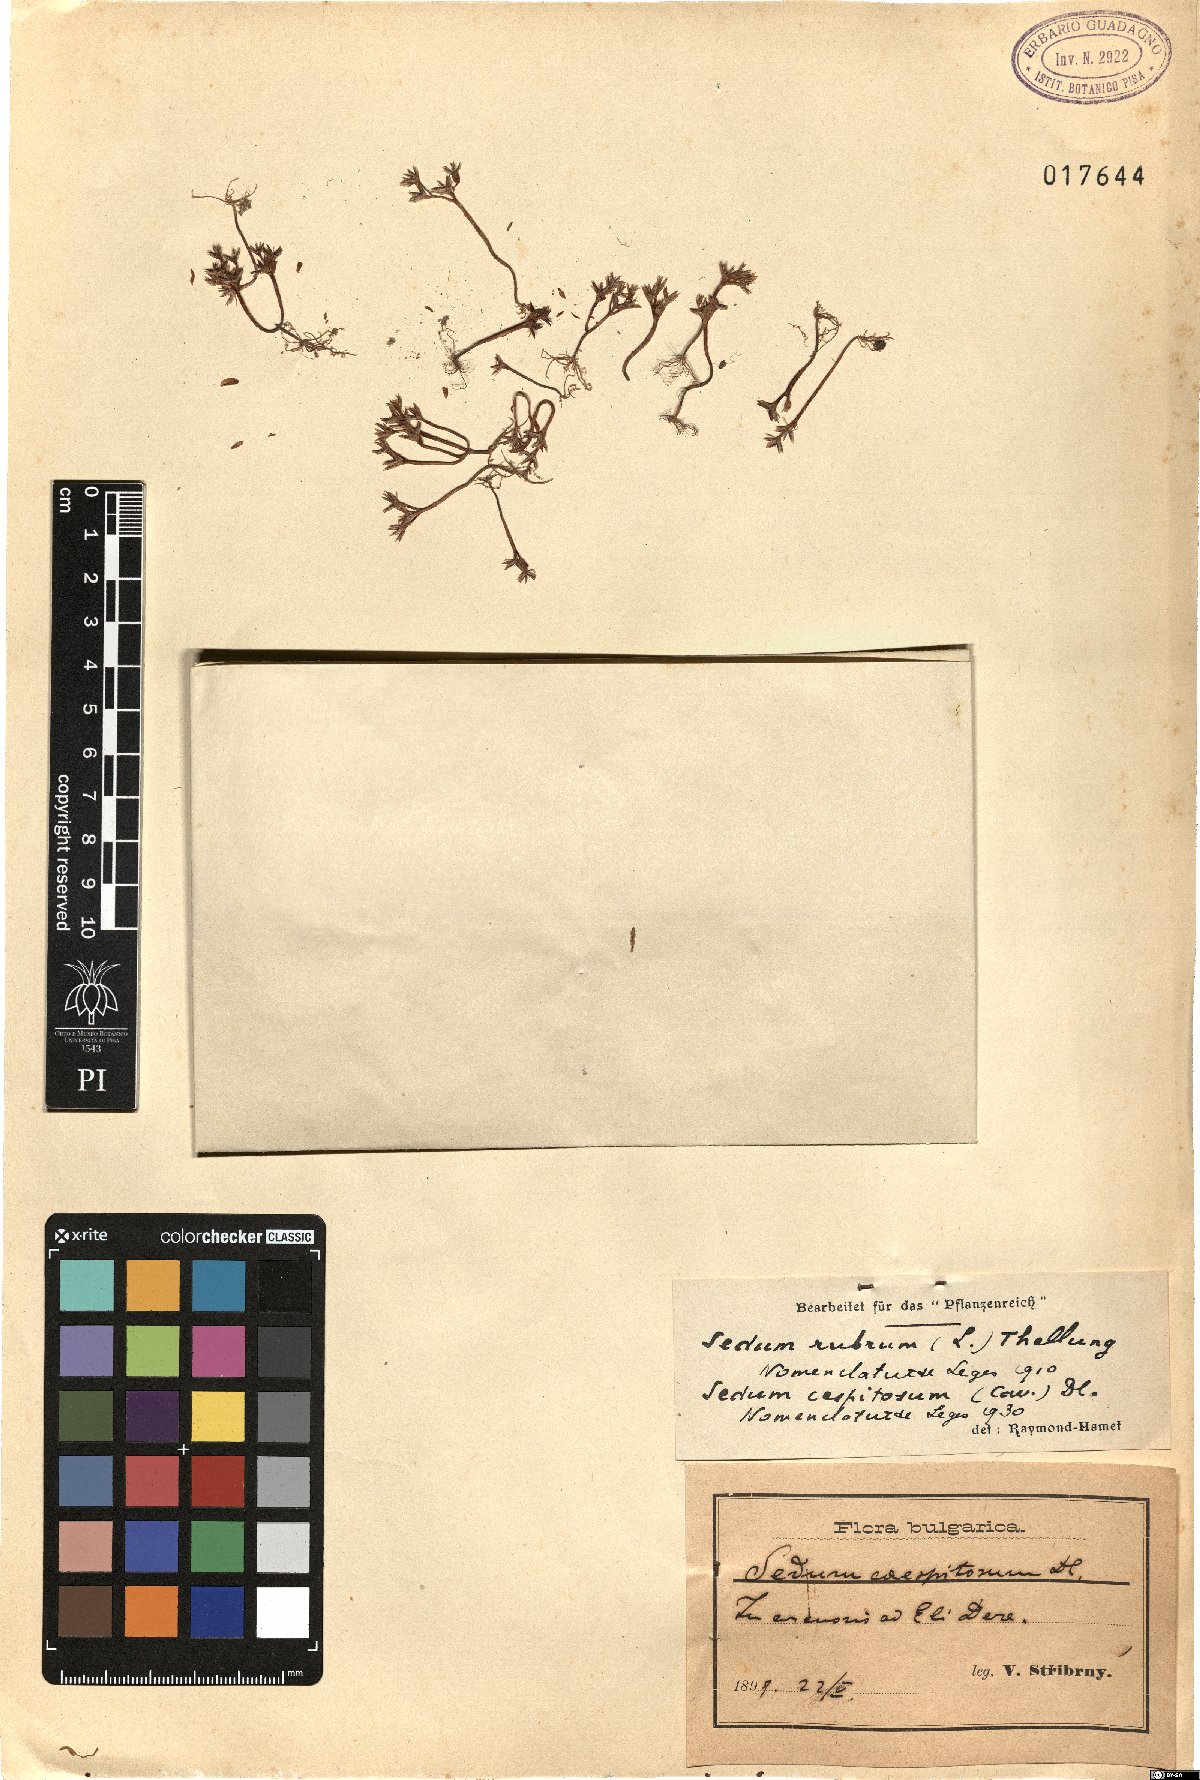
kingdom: Plantae
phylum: Tracheophyta
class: Magnoliopsida
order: Saxifragales
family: Crassulaceae
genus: Sedum
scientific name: Sedum cespitosum
